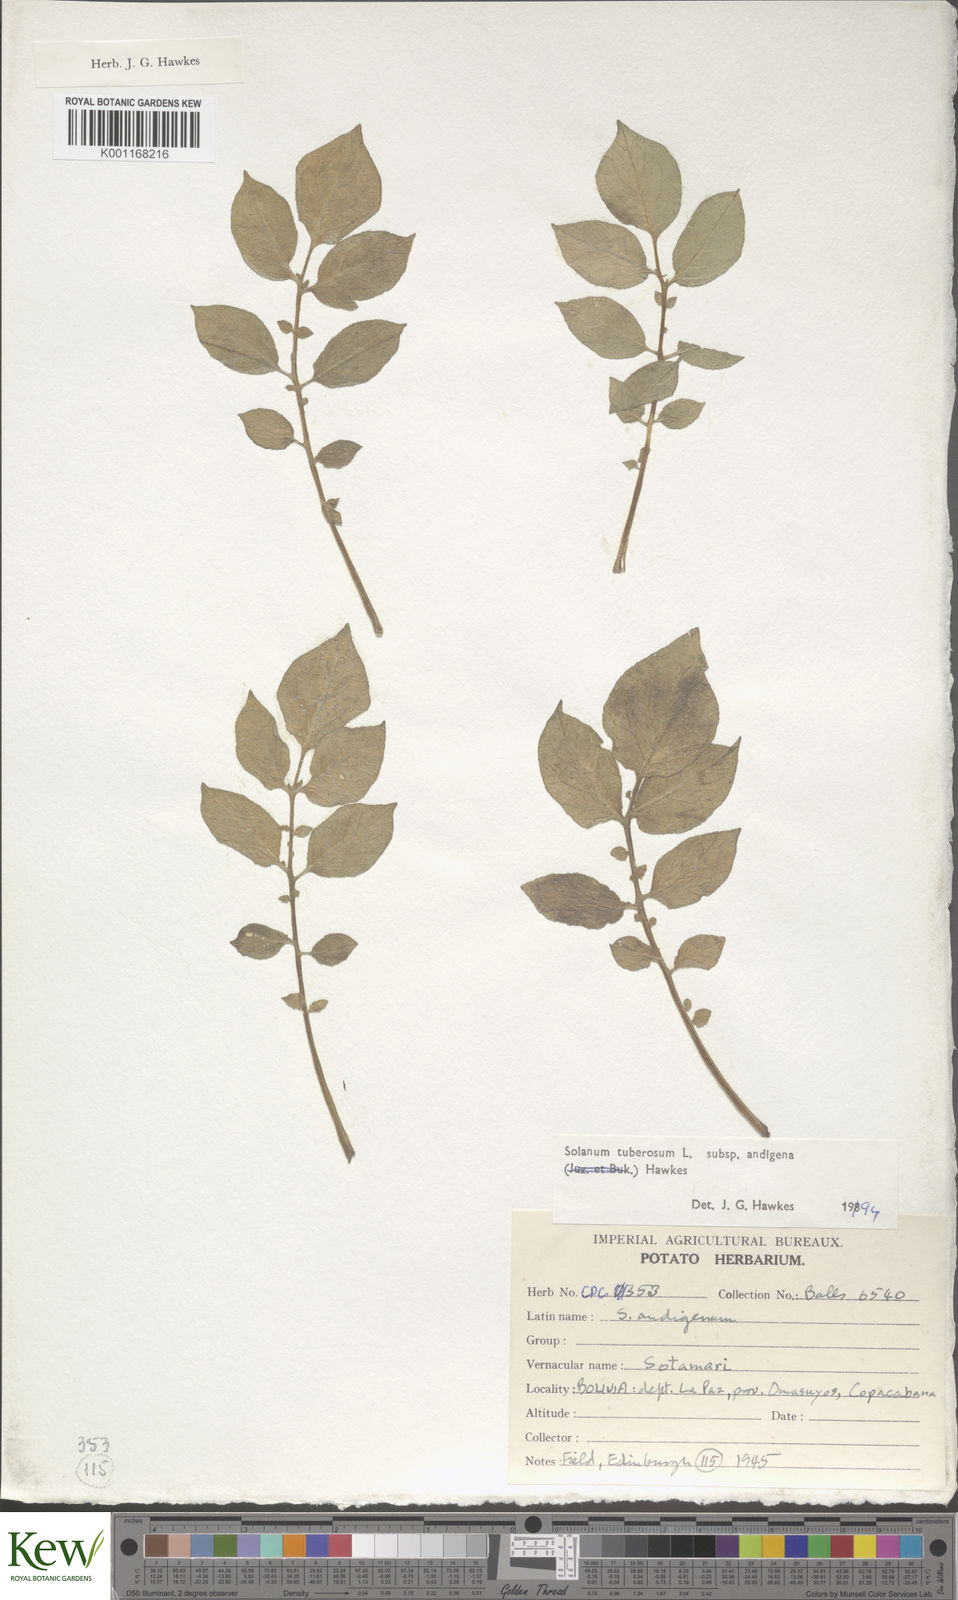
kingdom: Plantae
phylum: Tracheophyta
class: Magnoliopsida
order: Solanales
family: Solanaceae
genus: Solanum
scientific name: Solanum tuberosum
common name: Potato
